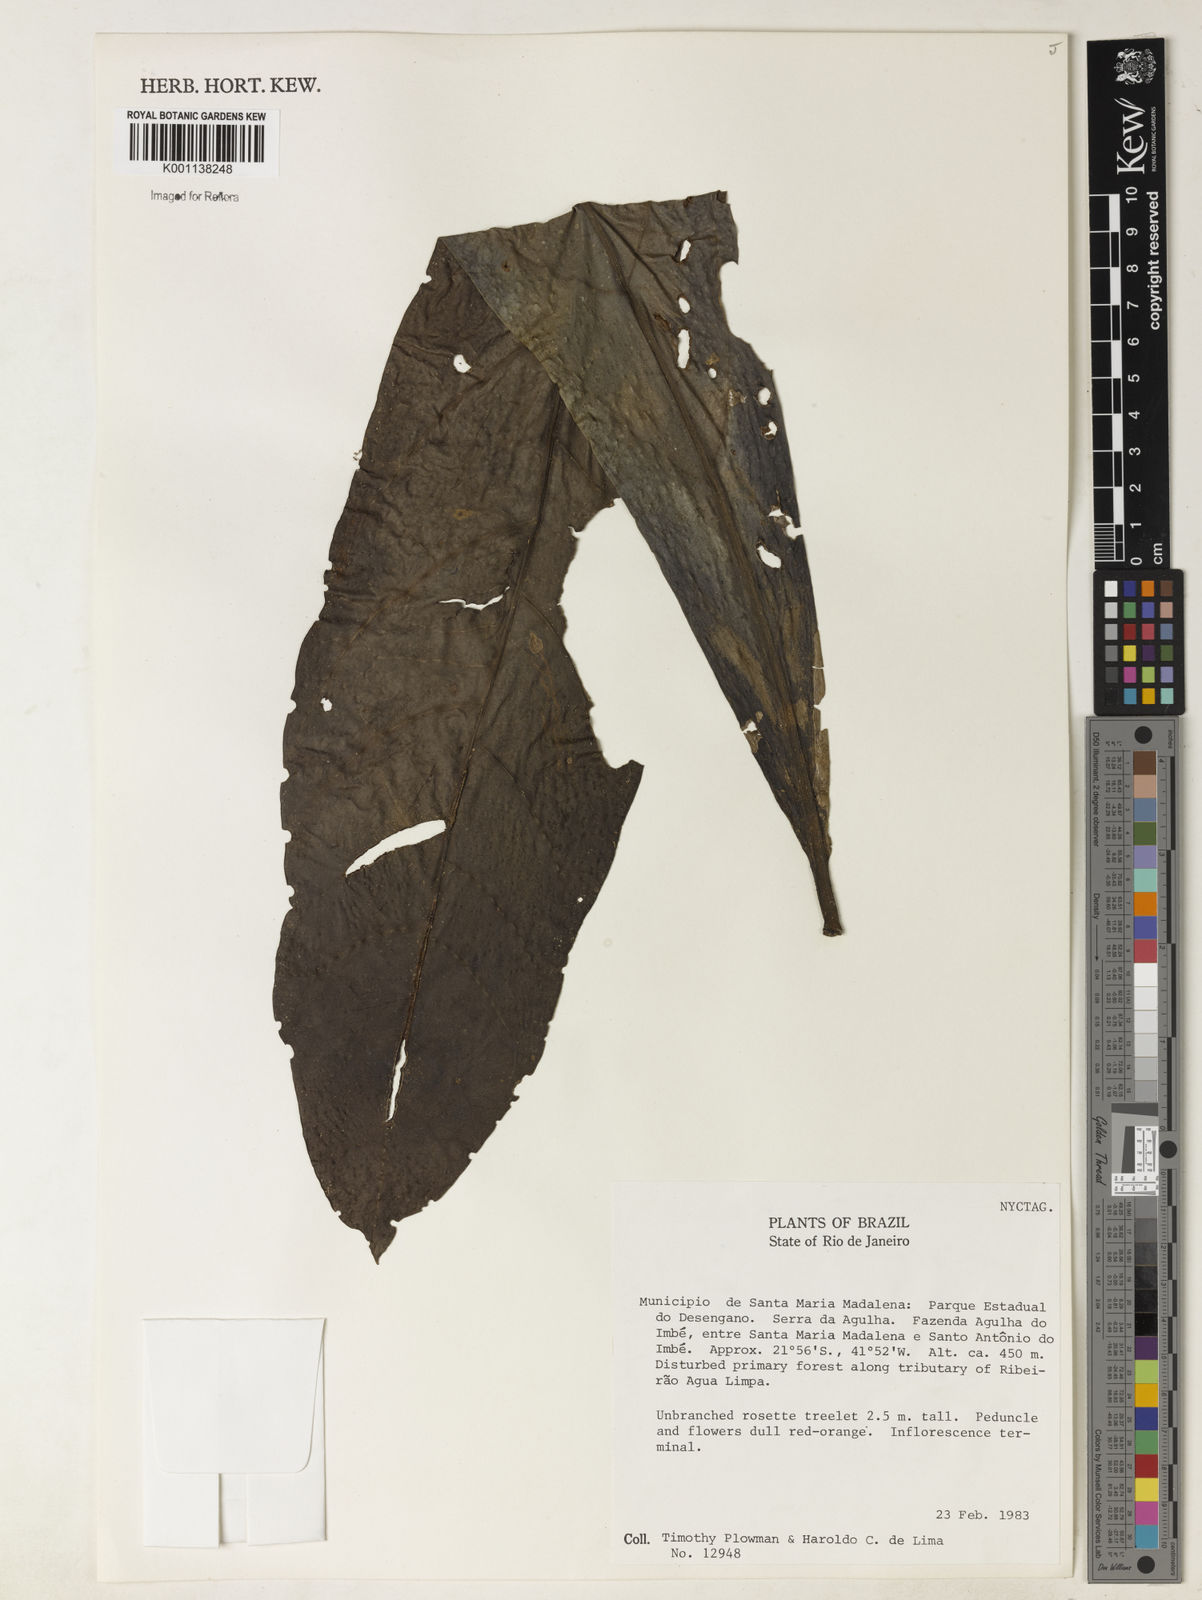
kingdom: Plantae
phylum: Tracheophyta
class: Magnoliopsida
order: Caryophyllales
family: Nyctaginaceae
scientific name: Nyctaginaceae
